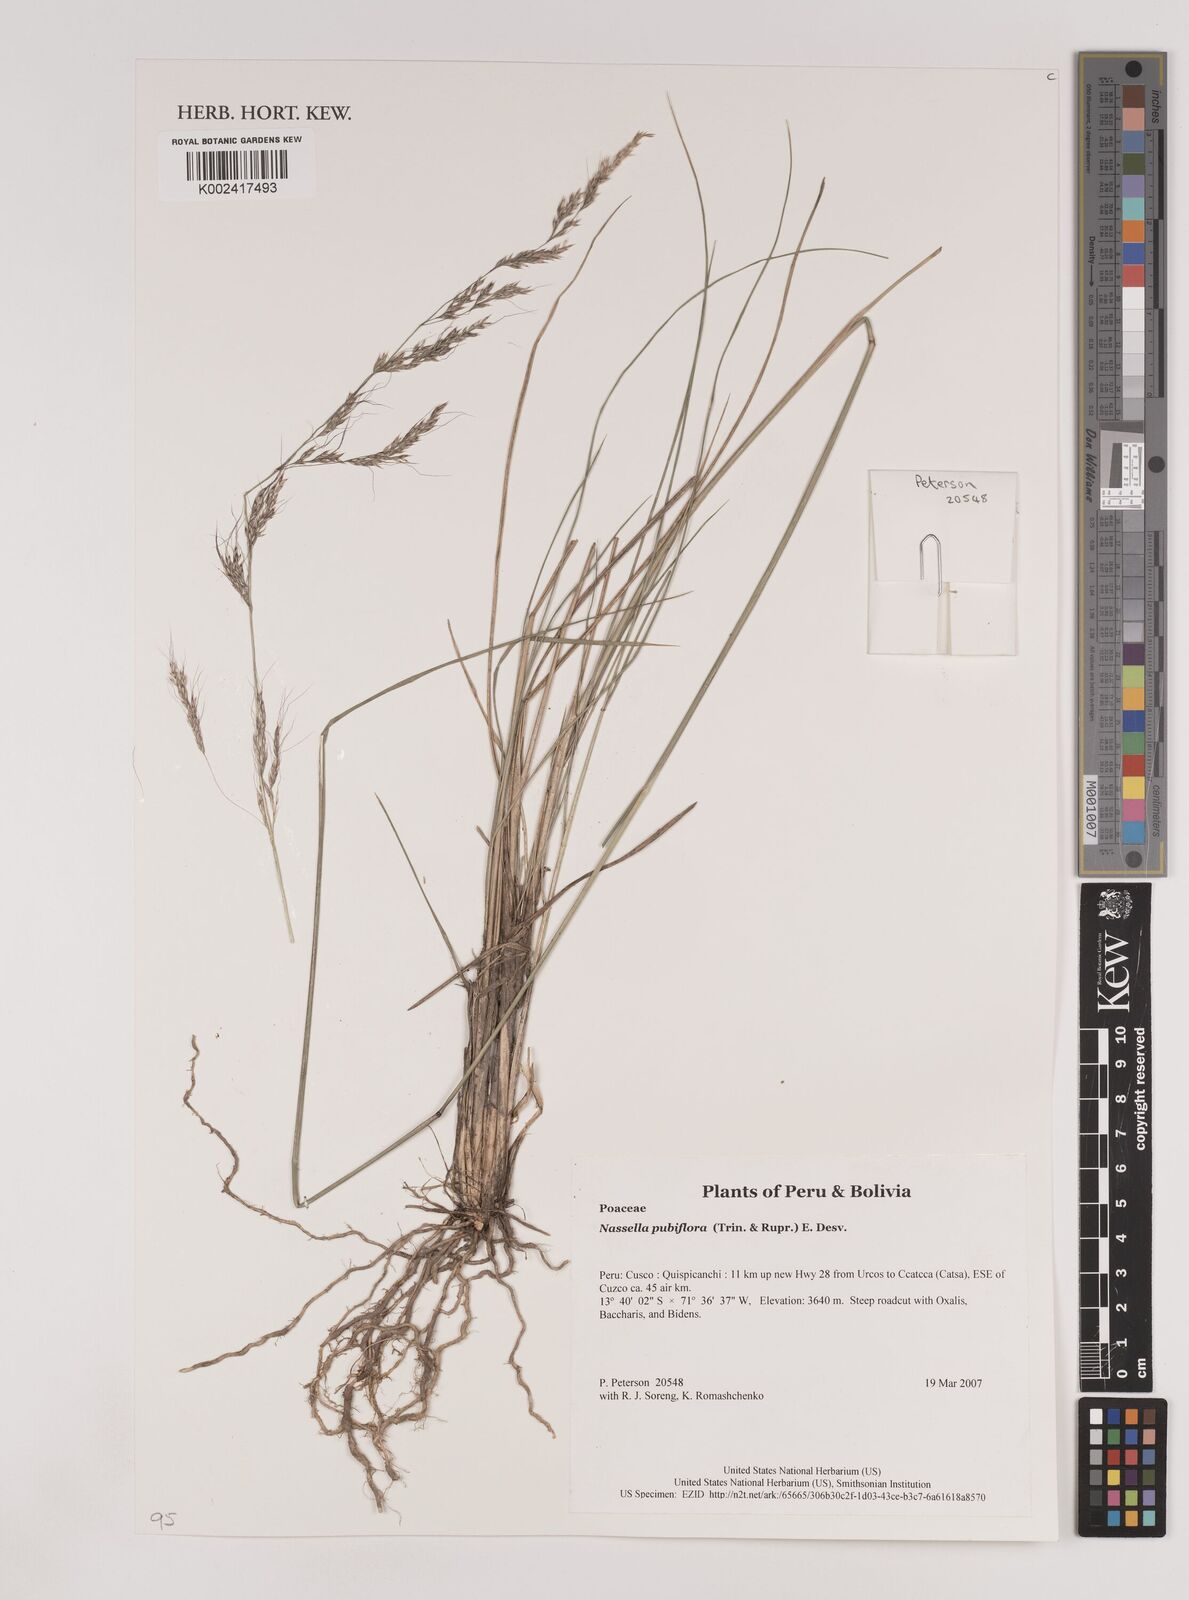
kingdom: Plantae
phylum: Tracheophyta
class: Liliopsida
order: Poales
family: Poaceae
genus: Nassella
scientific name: Nassella pubiflora
